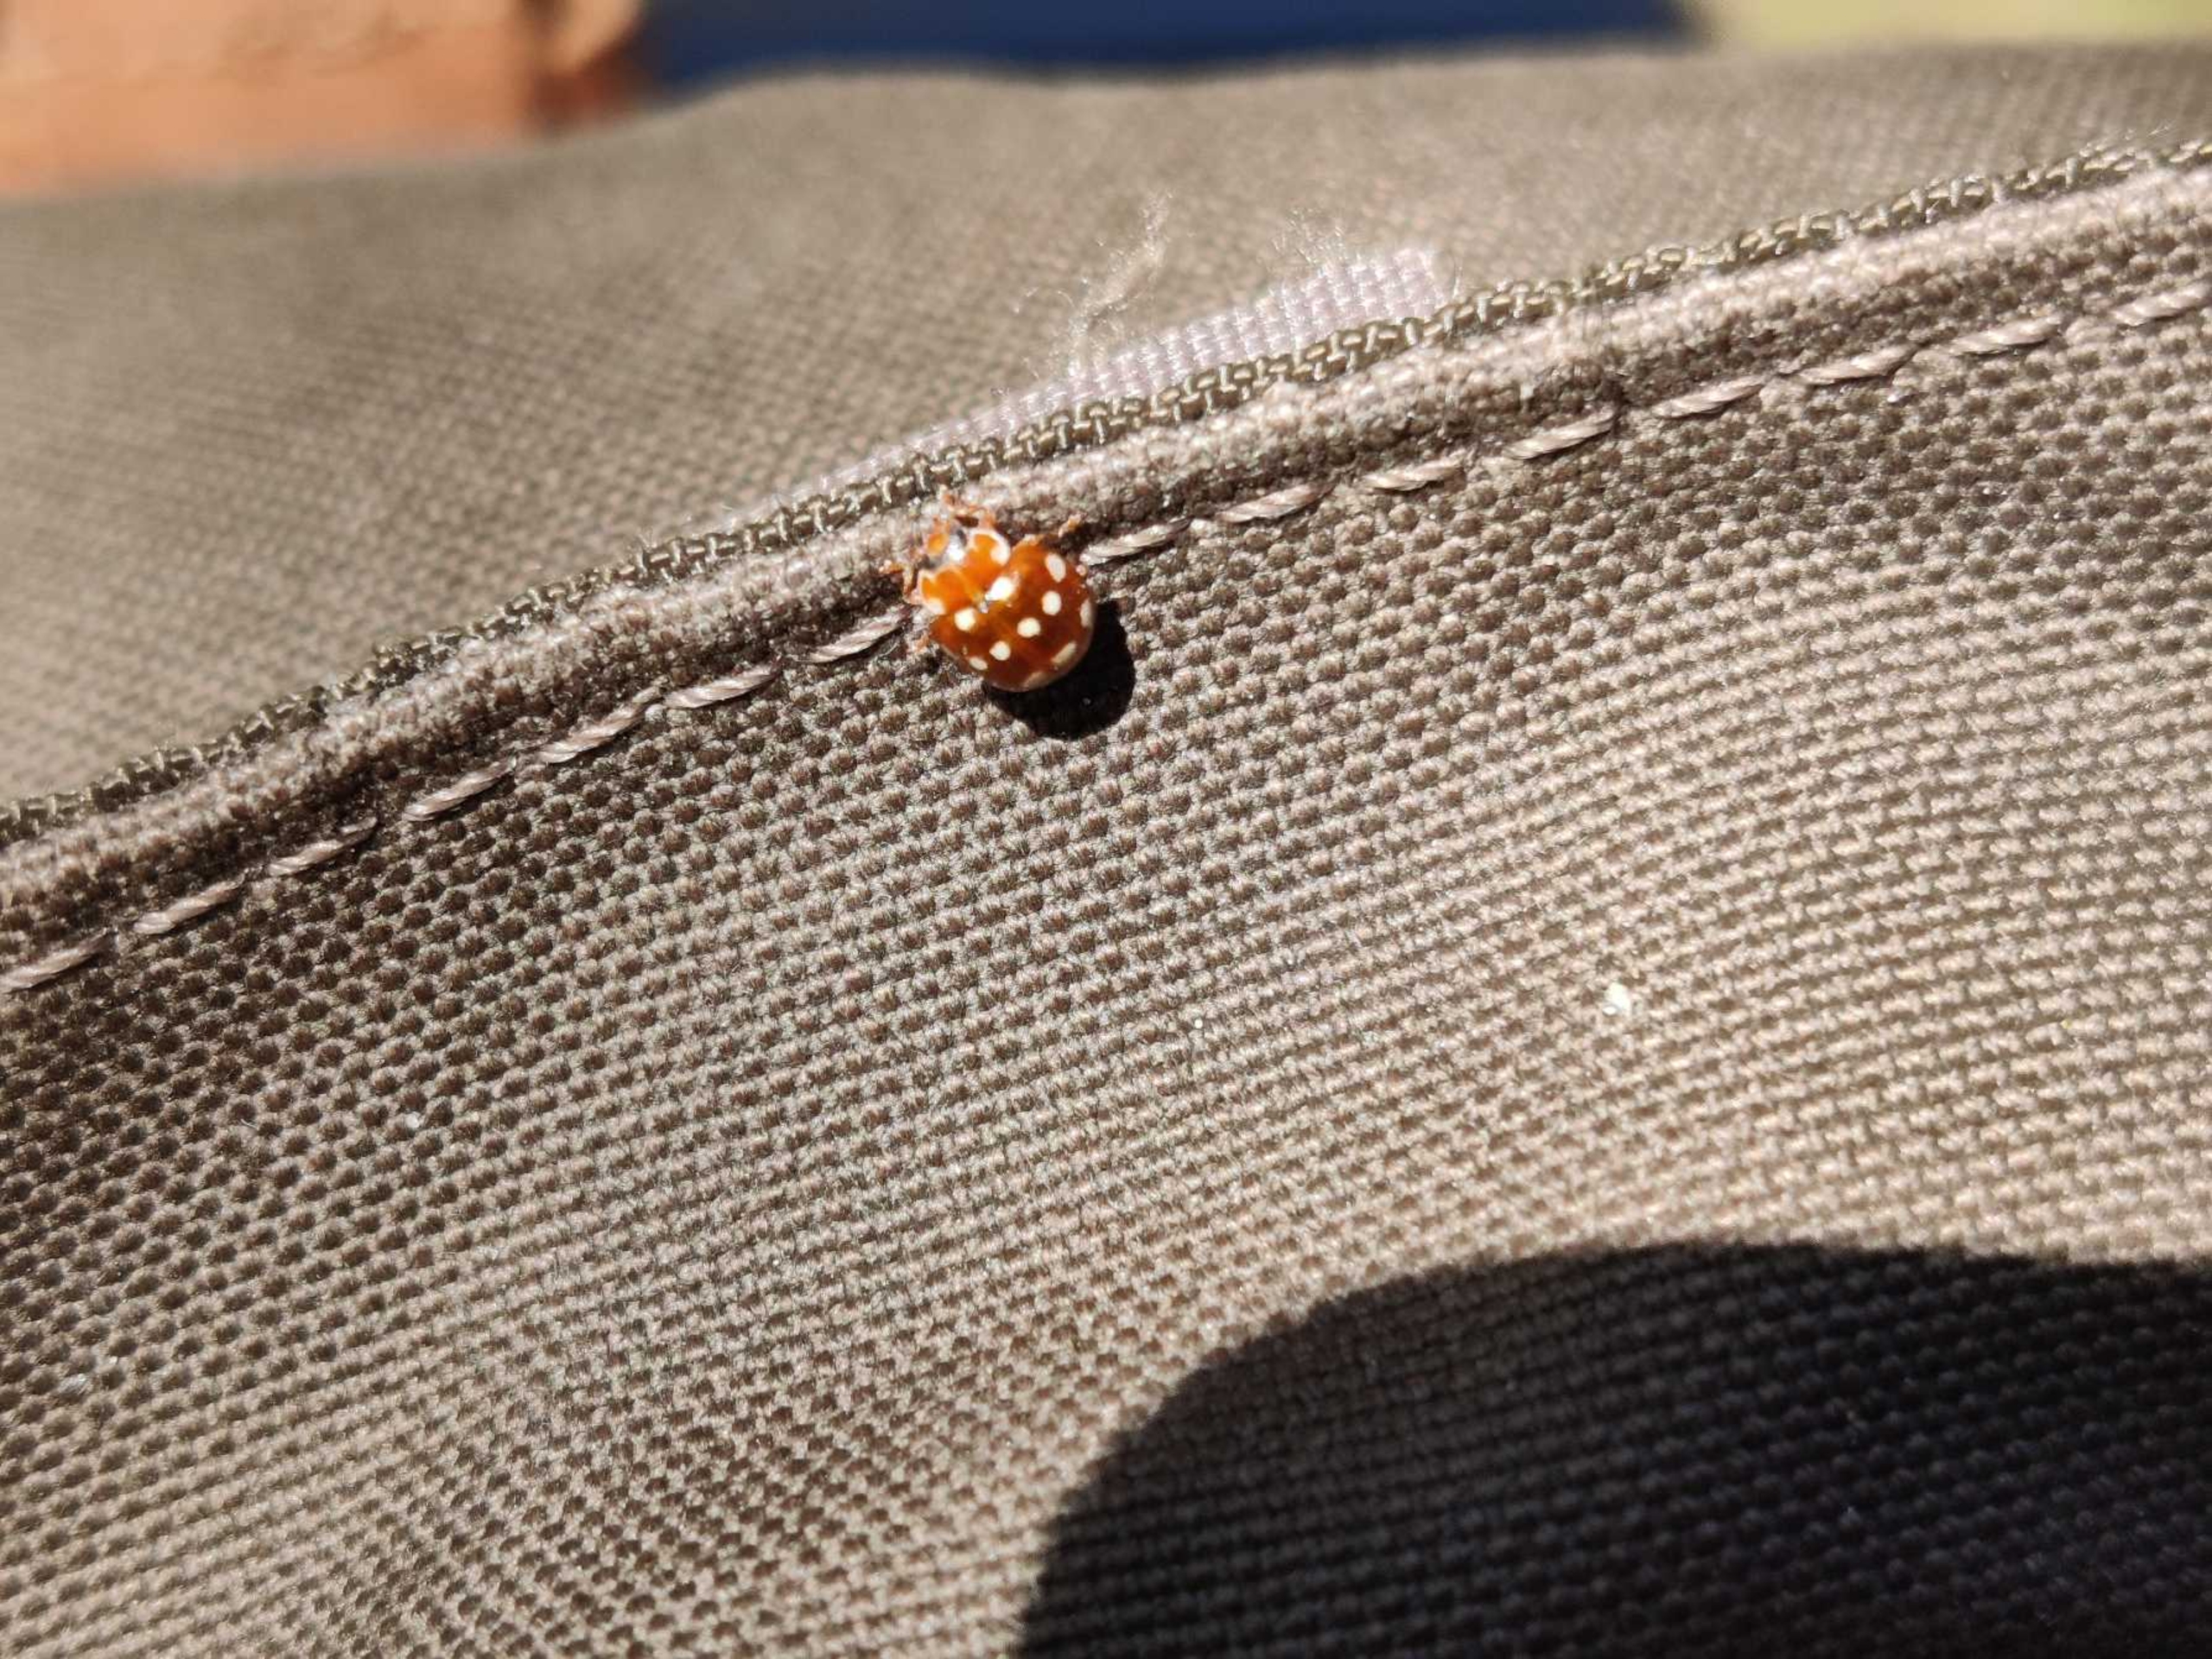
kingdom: Animalia
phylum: Arthropoda
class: Insecta
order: Coleoptera
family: Coccinellidae
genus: Calvia
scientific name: Calvia quatuordecimguttata
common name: Fjortenplettet mariehøne
